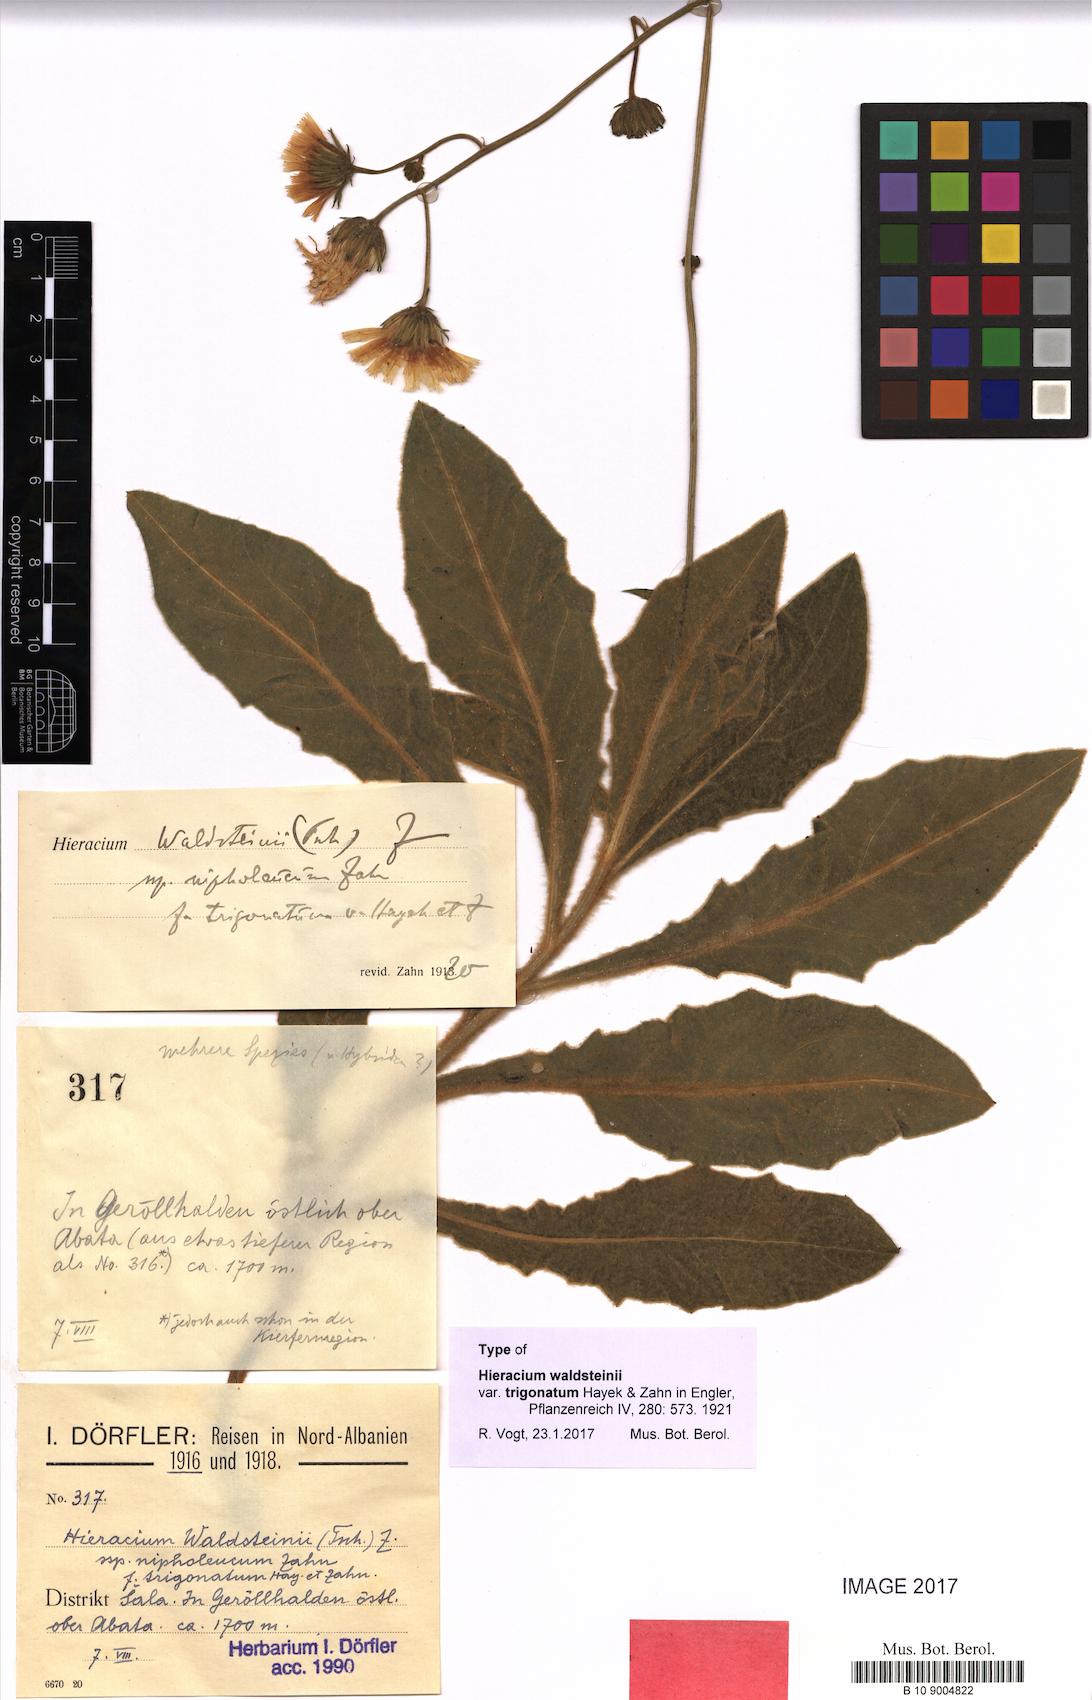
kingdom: Plantae
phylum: Tracheophyta
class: Magnoliopsida
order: Asterales
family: Asteraceae
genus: Hieracium
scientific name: Hieracium waldsteinii
